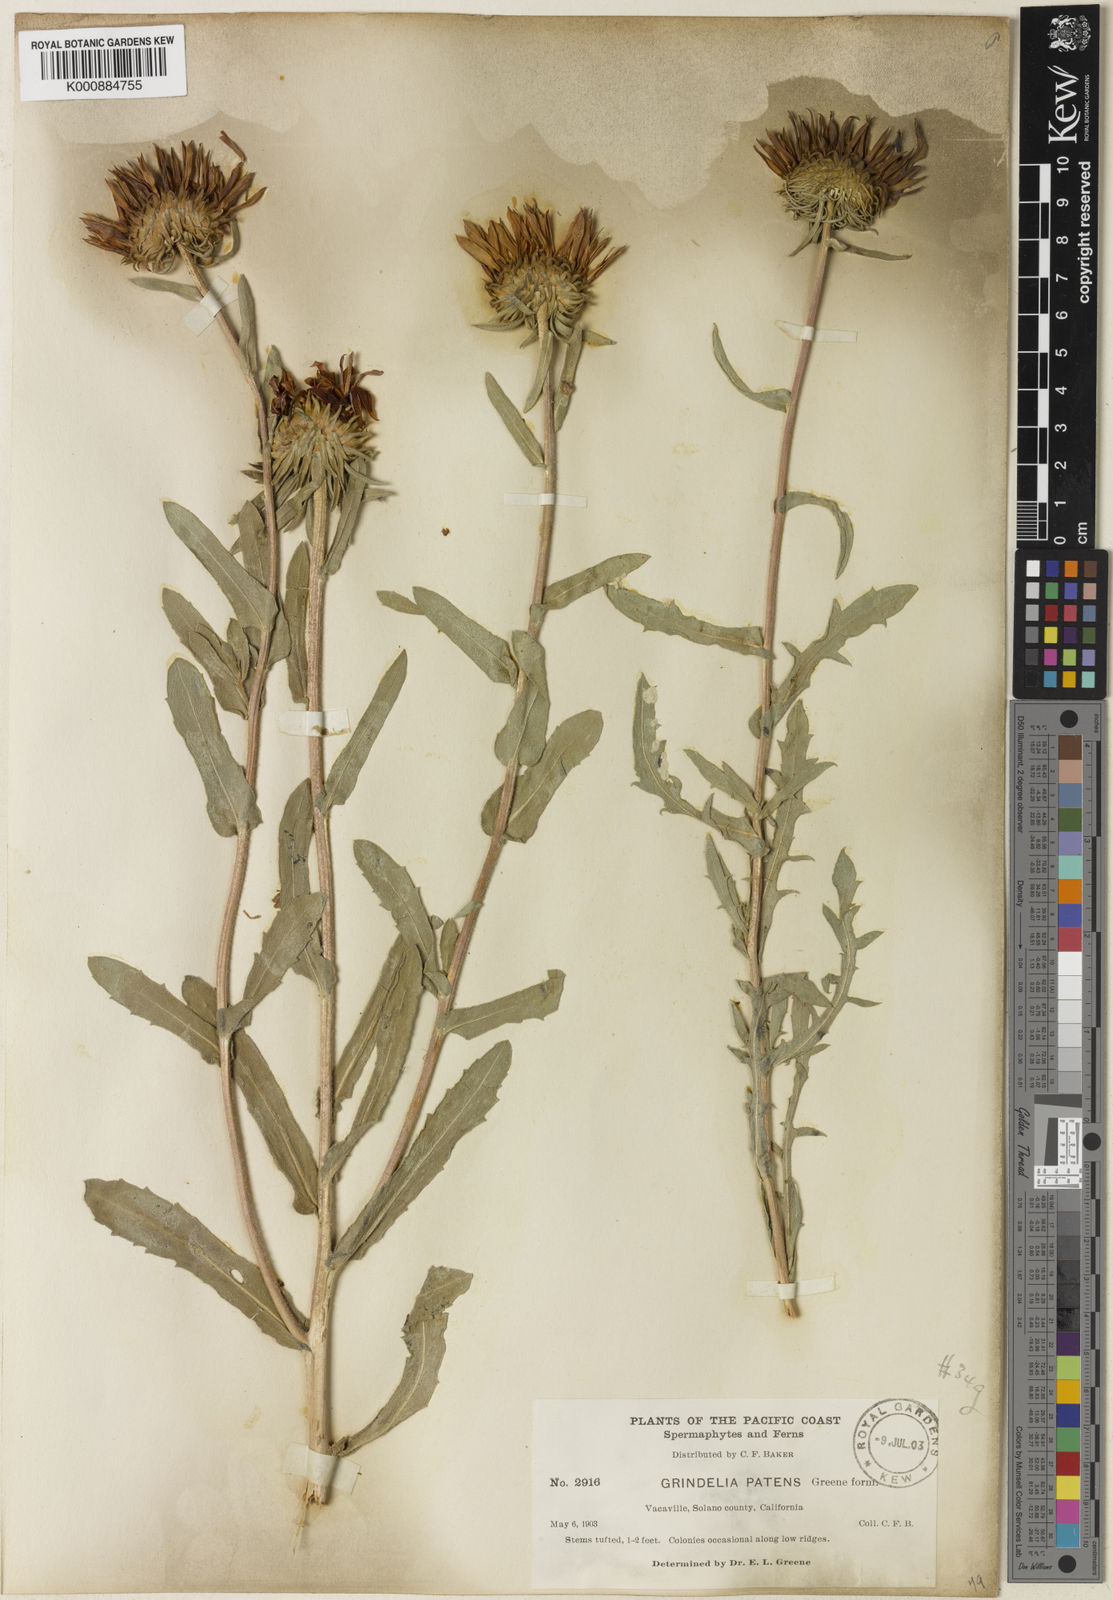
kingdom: Plantae
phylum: Tracheophyta
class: Magnoliopsida
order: Asterales
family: Asteraceae
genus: Grindelia
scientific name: Grindelia hirsutula
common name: Hairy gumweed
